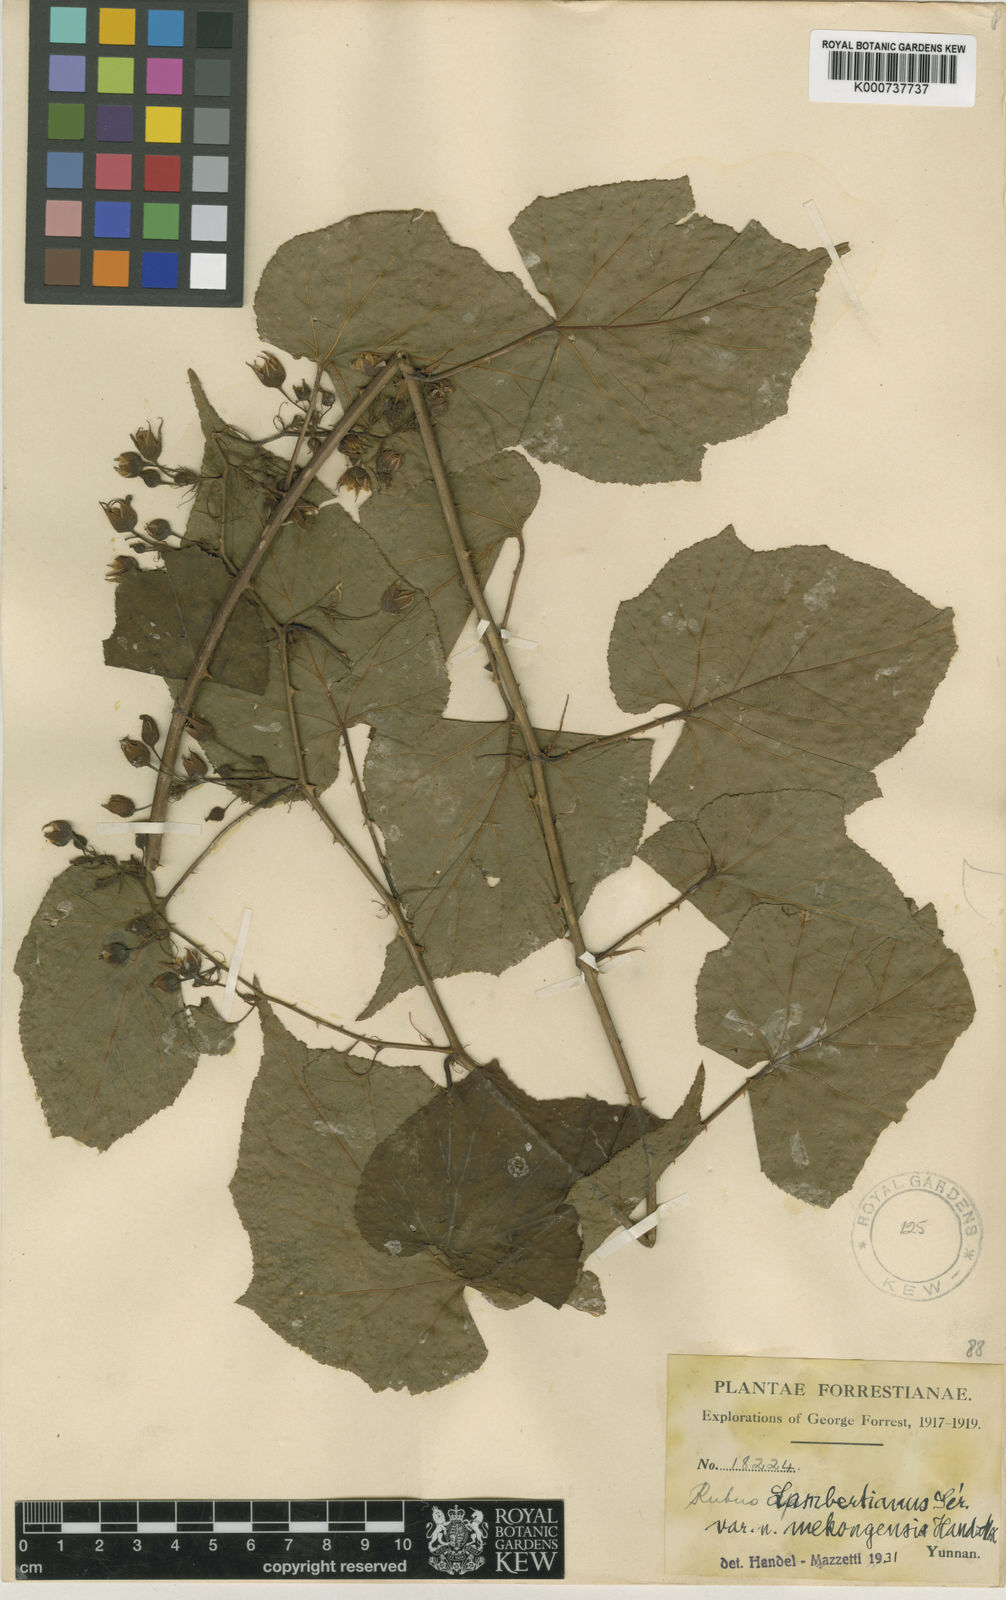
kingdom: Plantae
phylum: Tracheophyta
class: Magnoliopsida
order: Rosales
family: Rosaceae
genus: Rubus
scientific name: Rubus lambertianus
